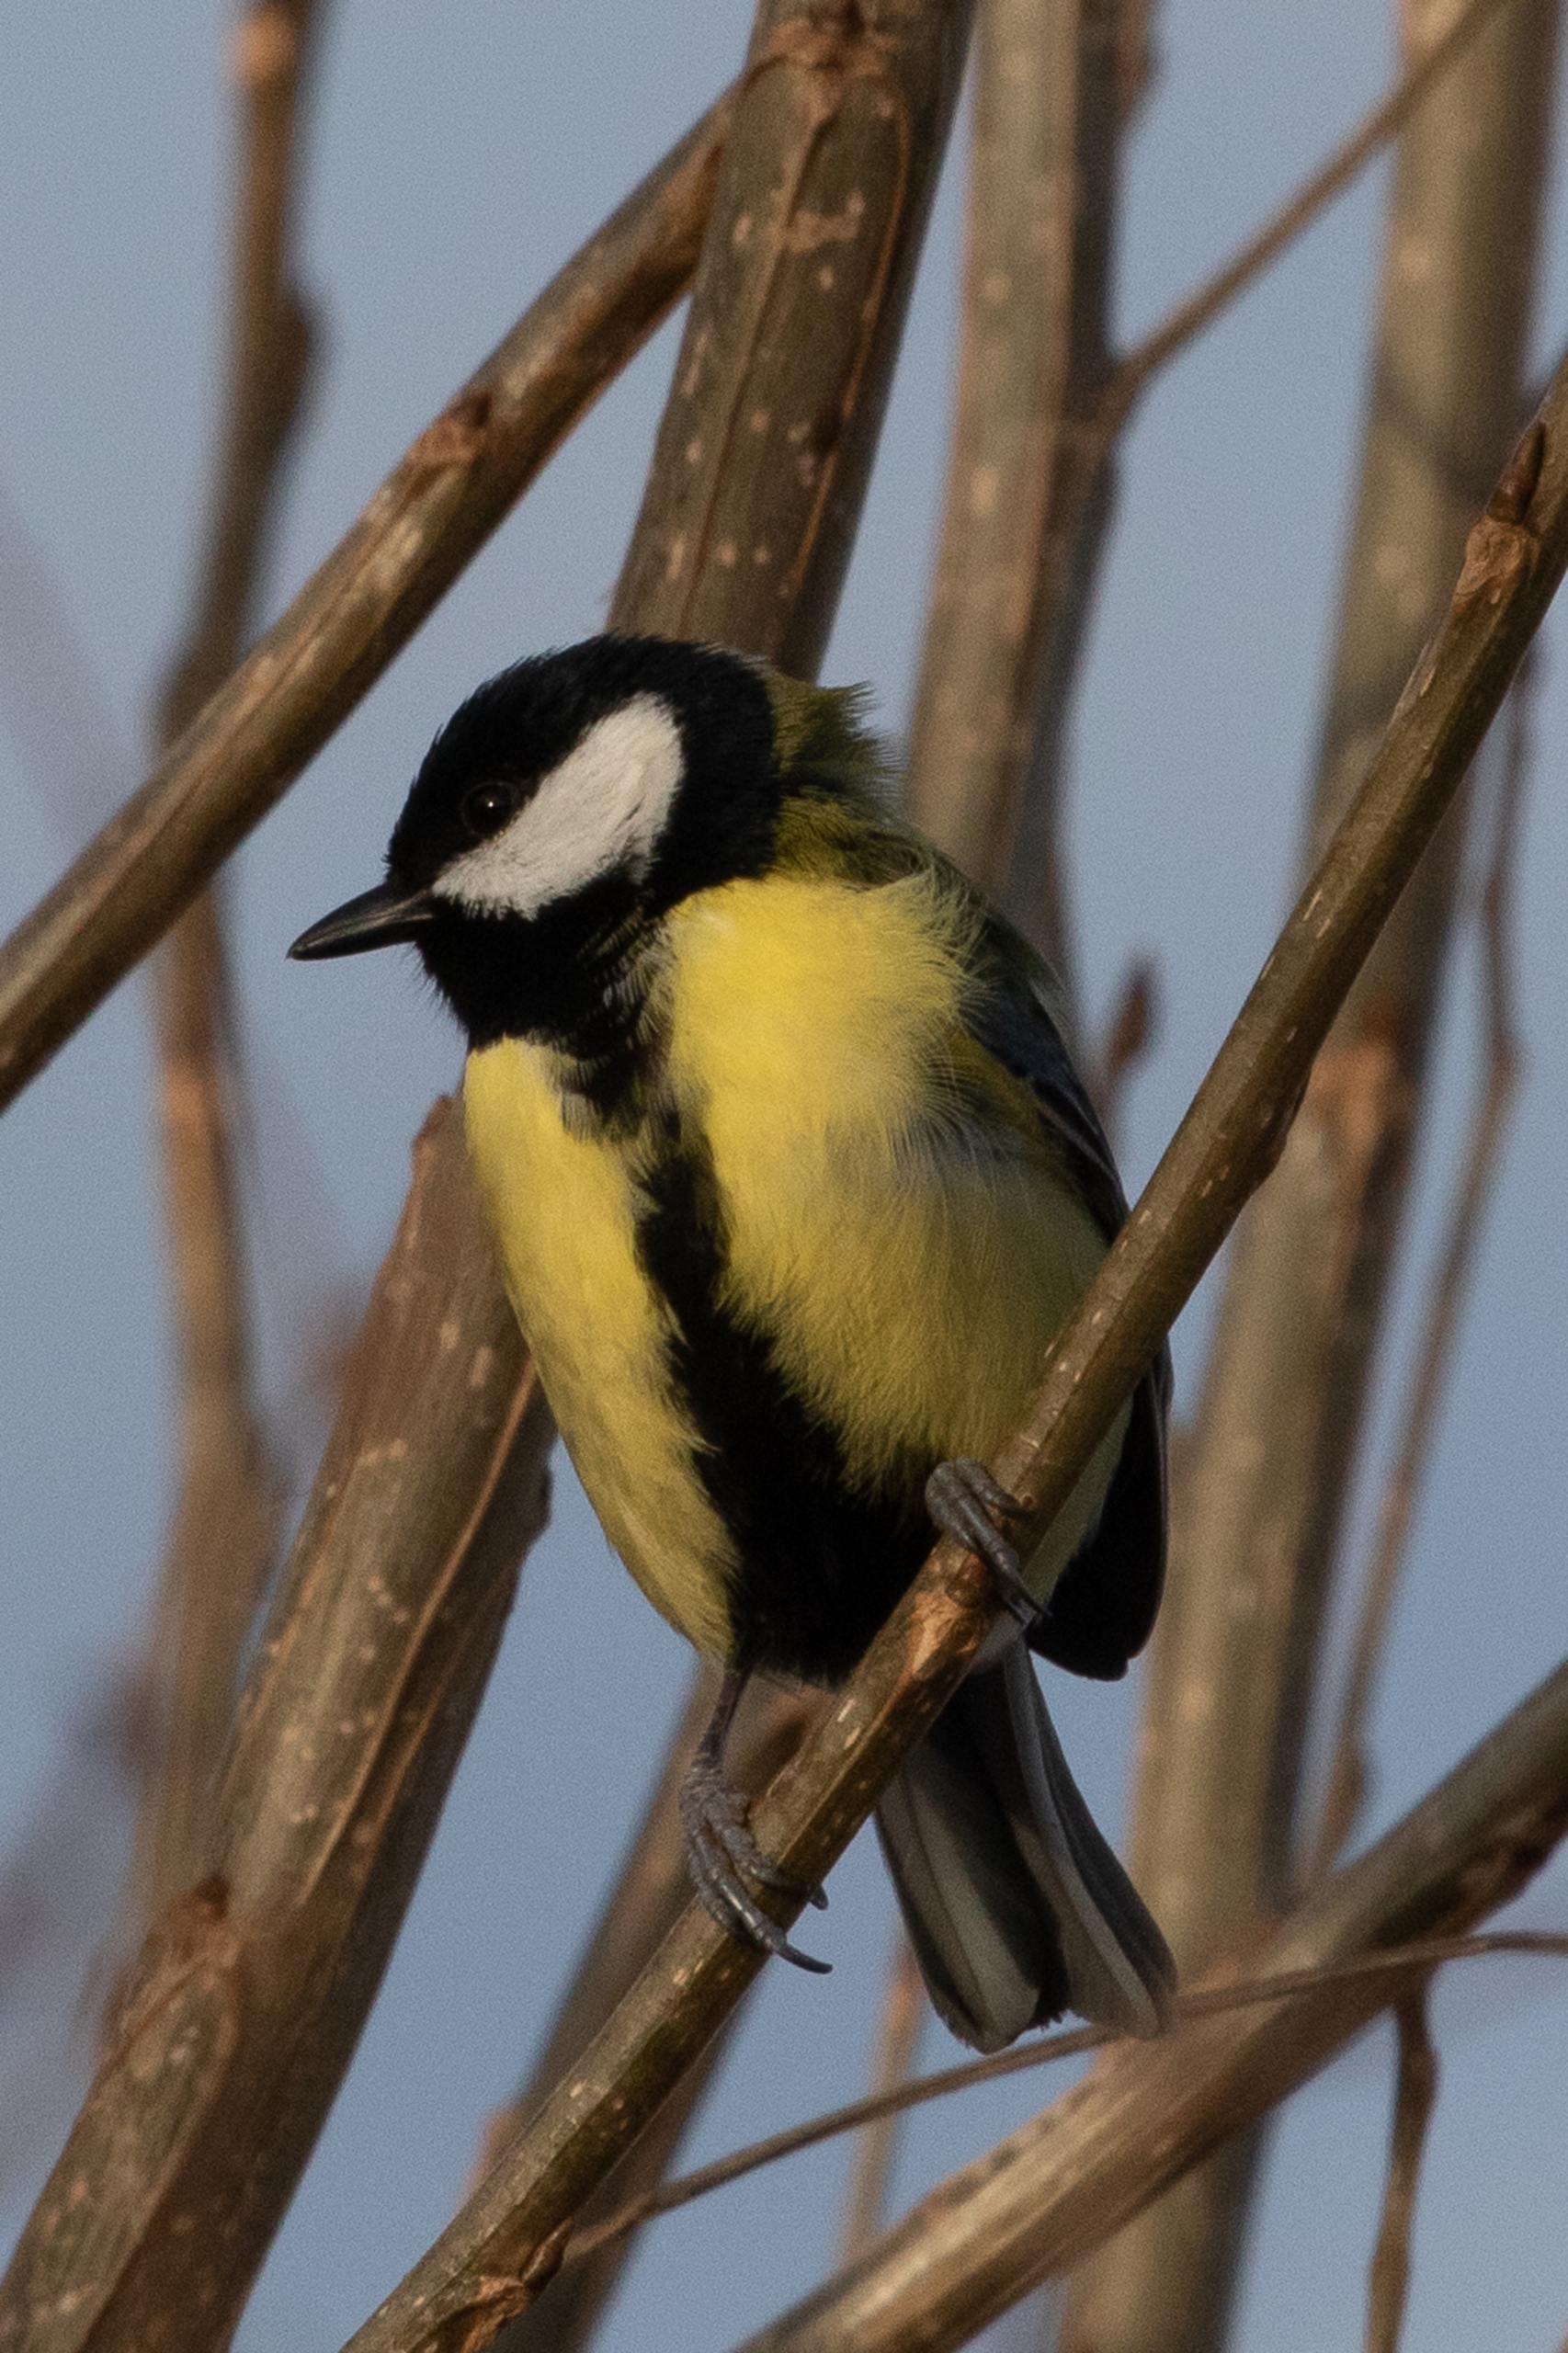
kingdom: Animalia
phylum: Chordata
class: Aves
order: Passeriformes
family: Paridae
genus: Parus
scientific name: Parus major
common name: Musvit
